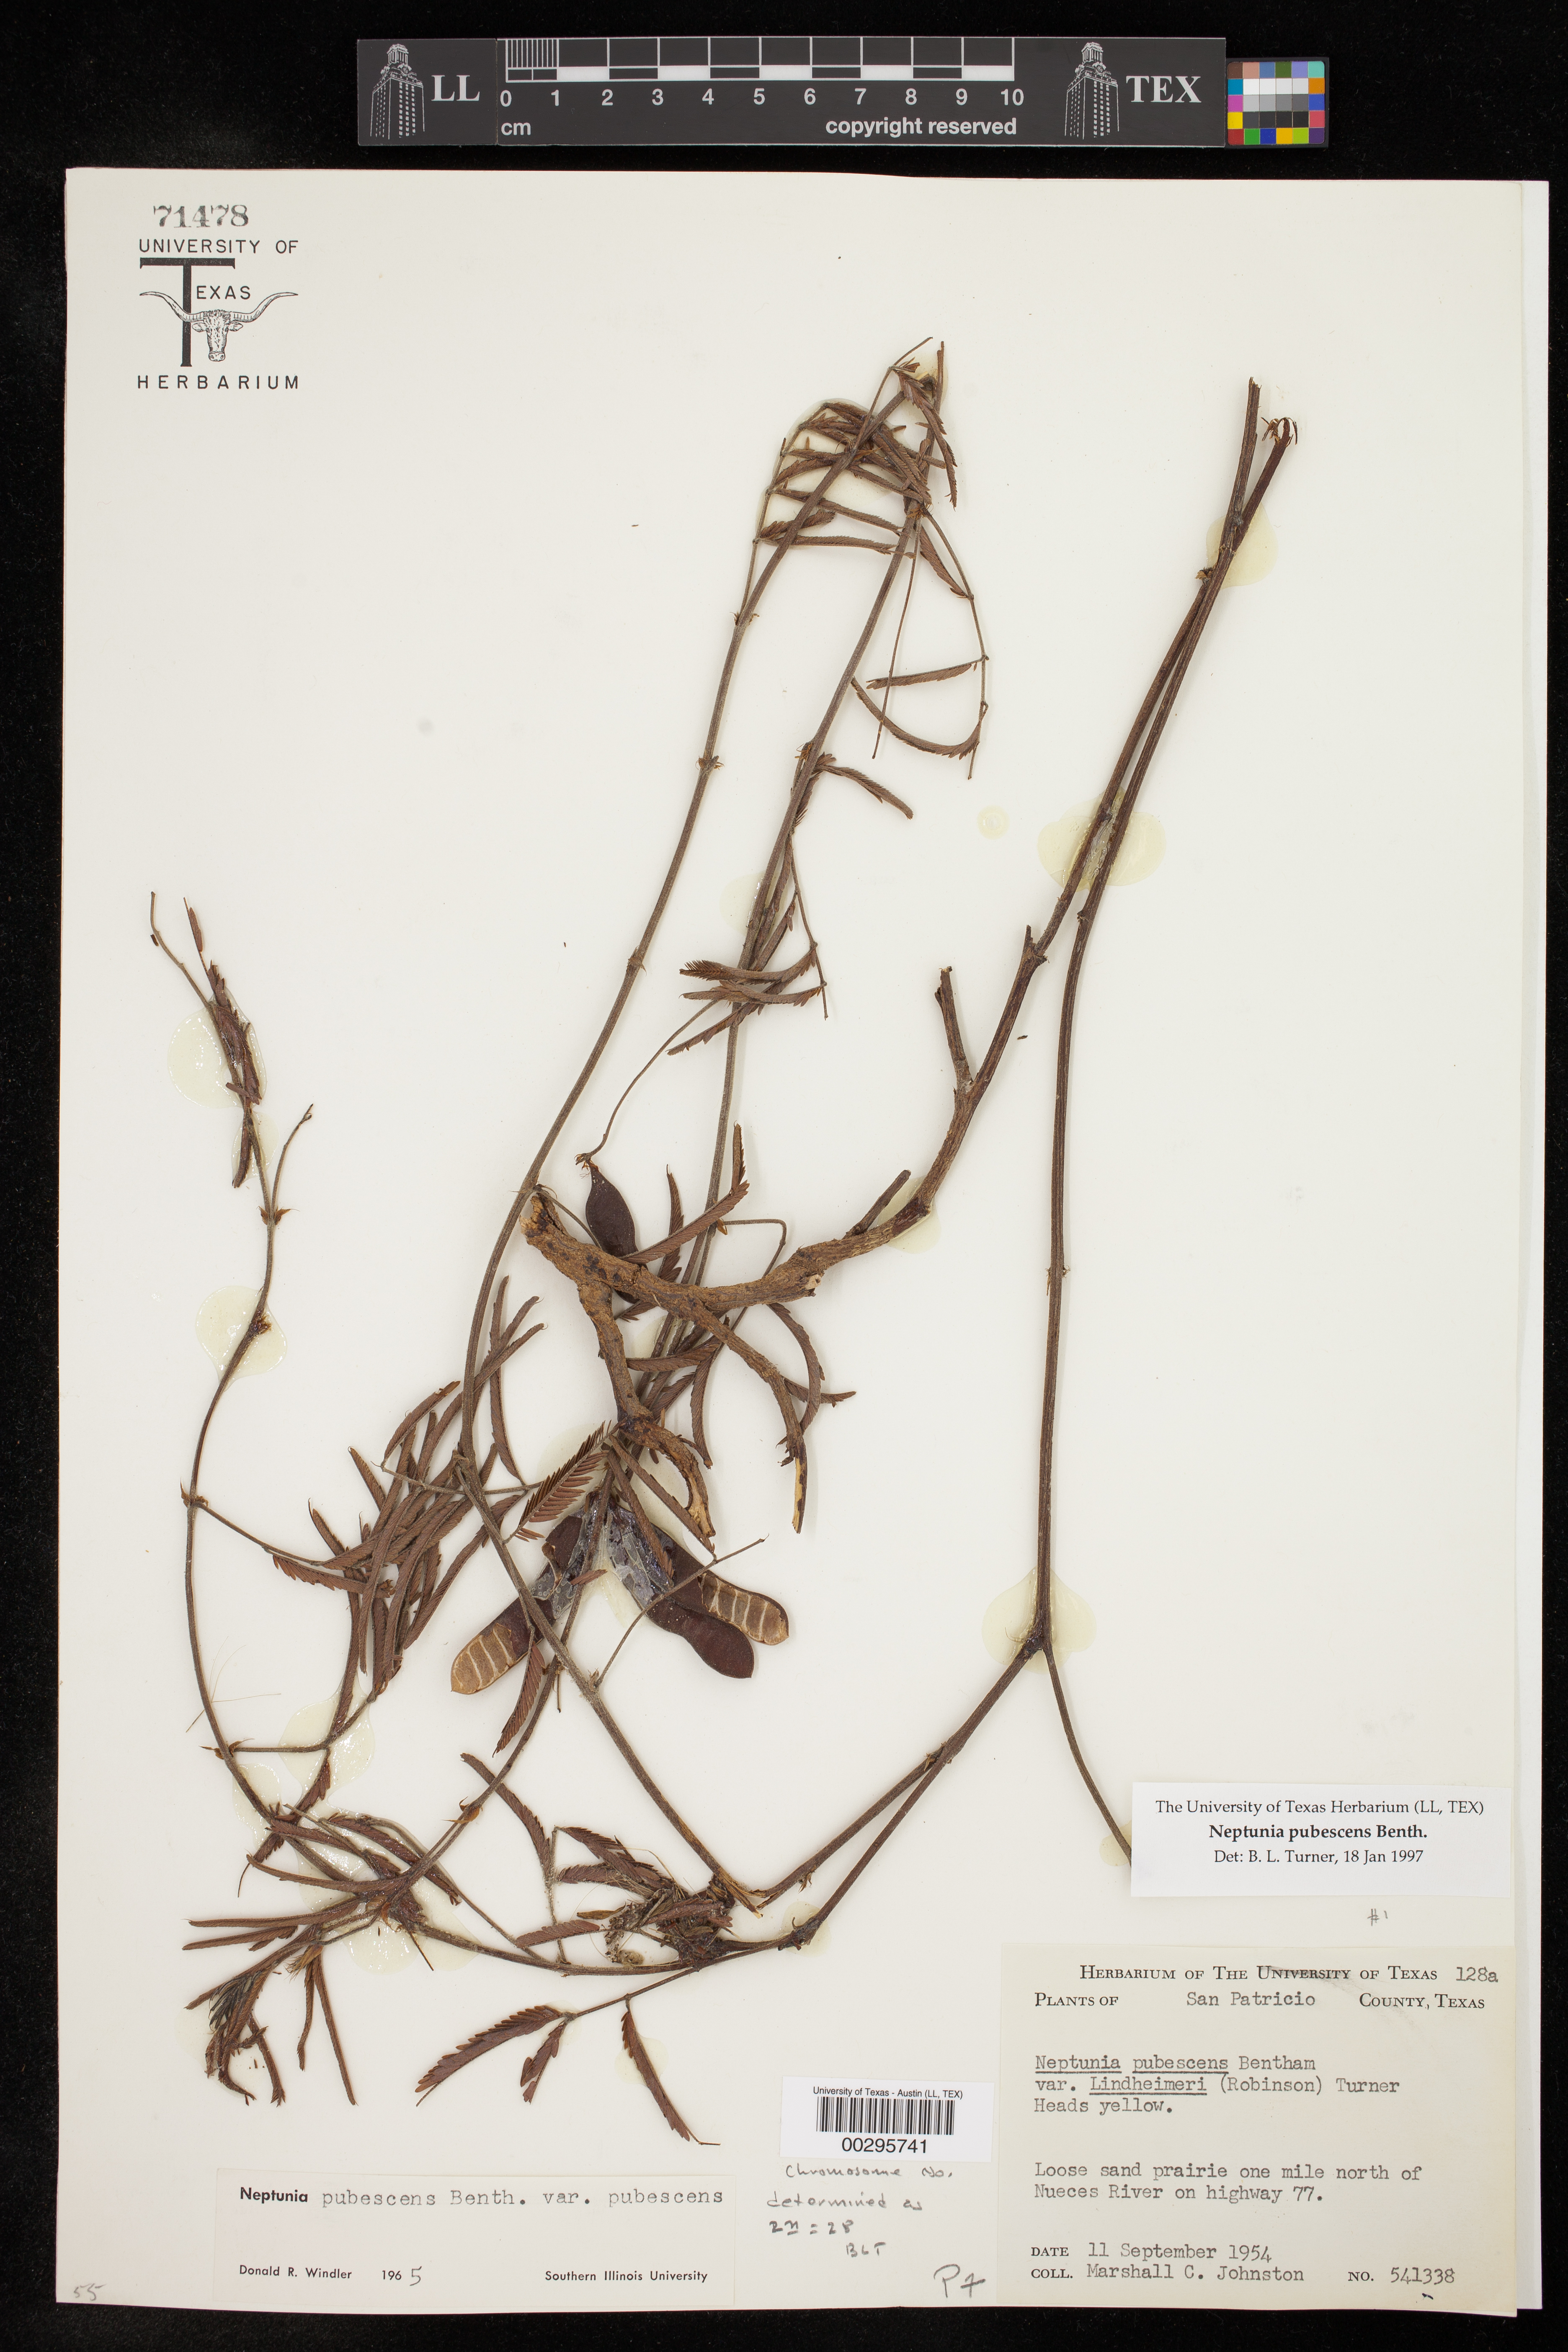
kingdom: Plantae
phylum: Tracheophyta
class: Magnoliopsida
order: Fabales
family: Fabaceae
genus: Neptunia
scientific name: Neptunia pubescens
